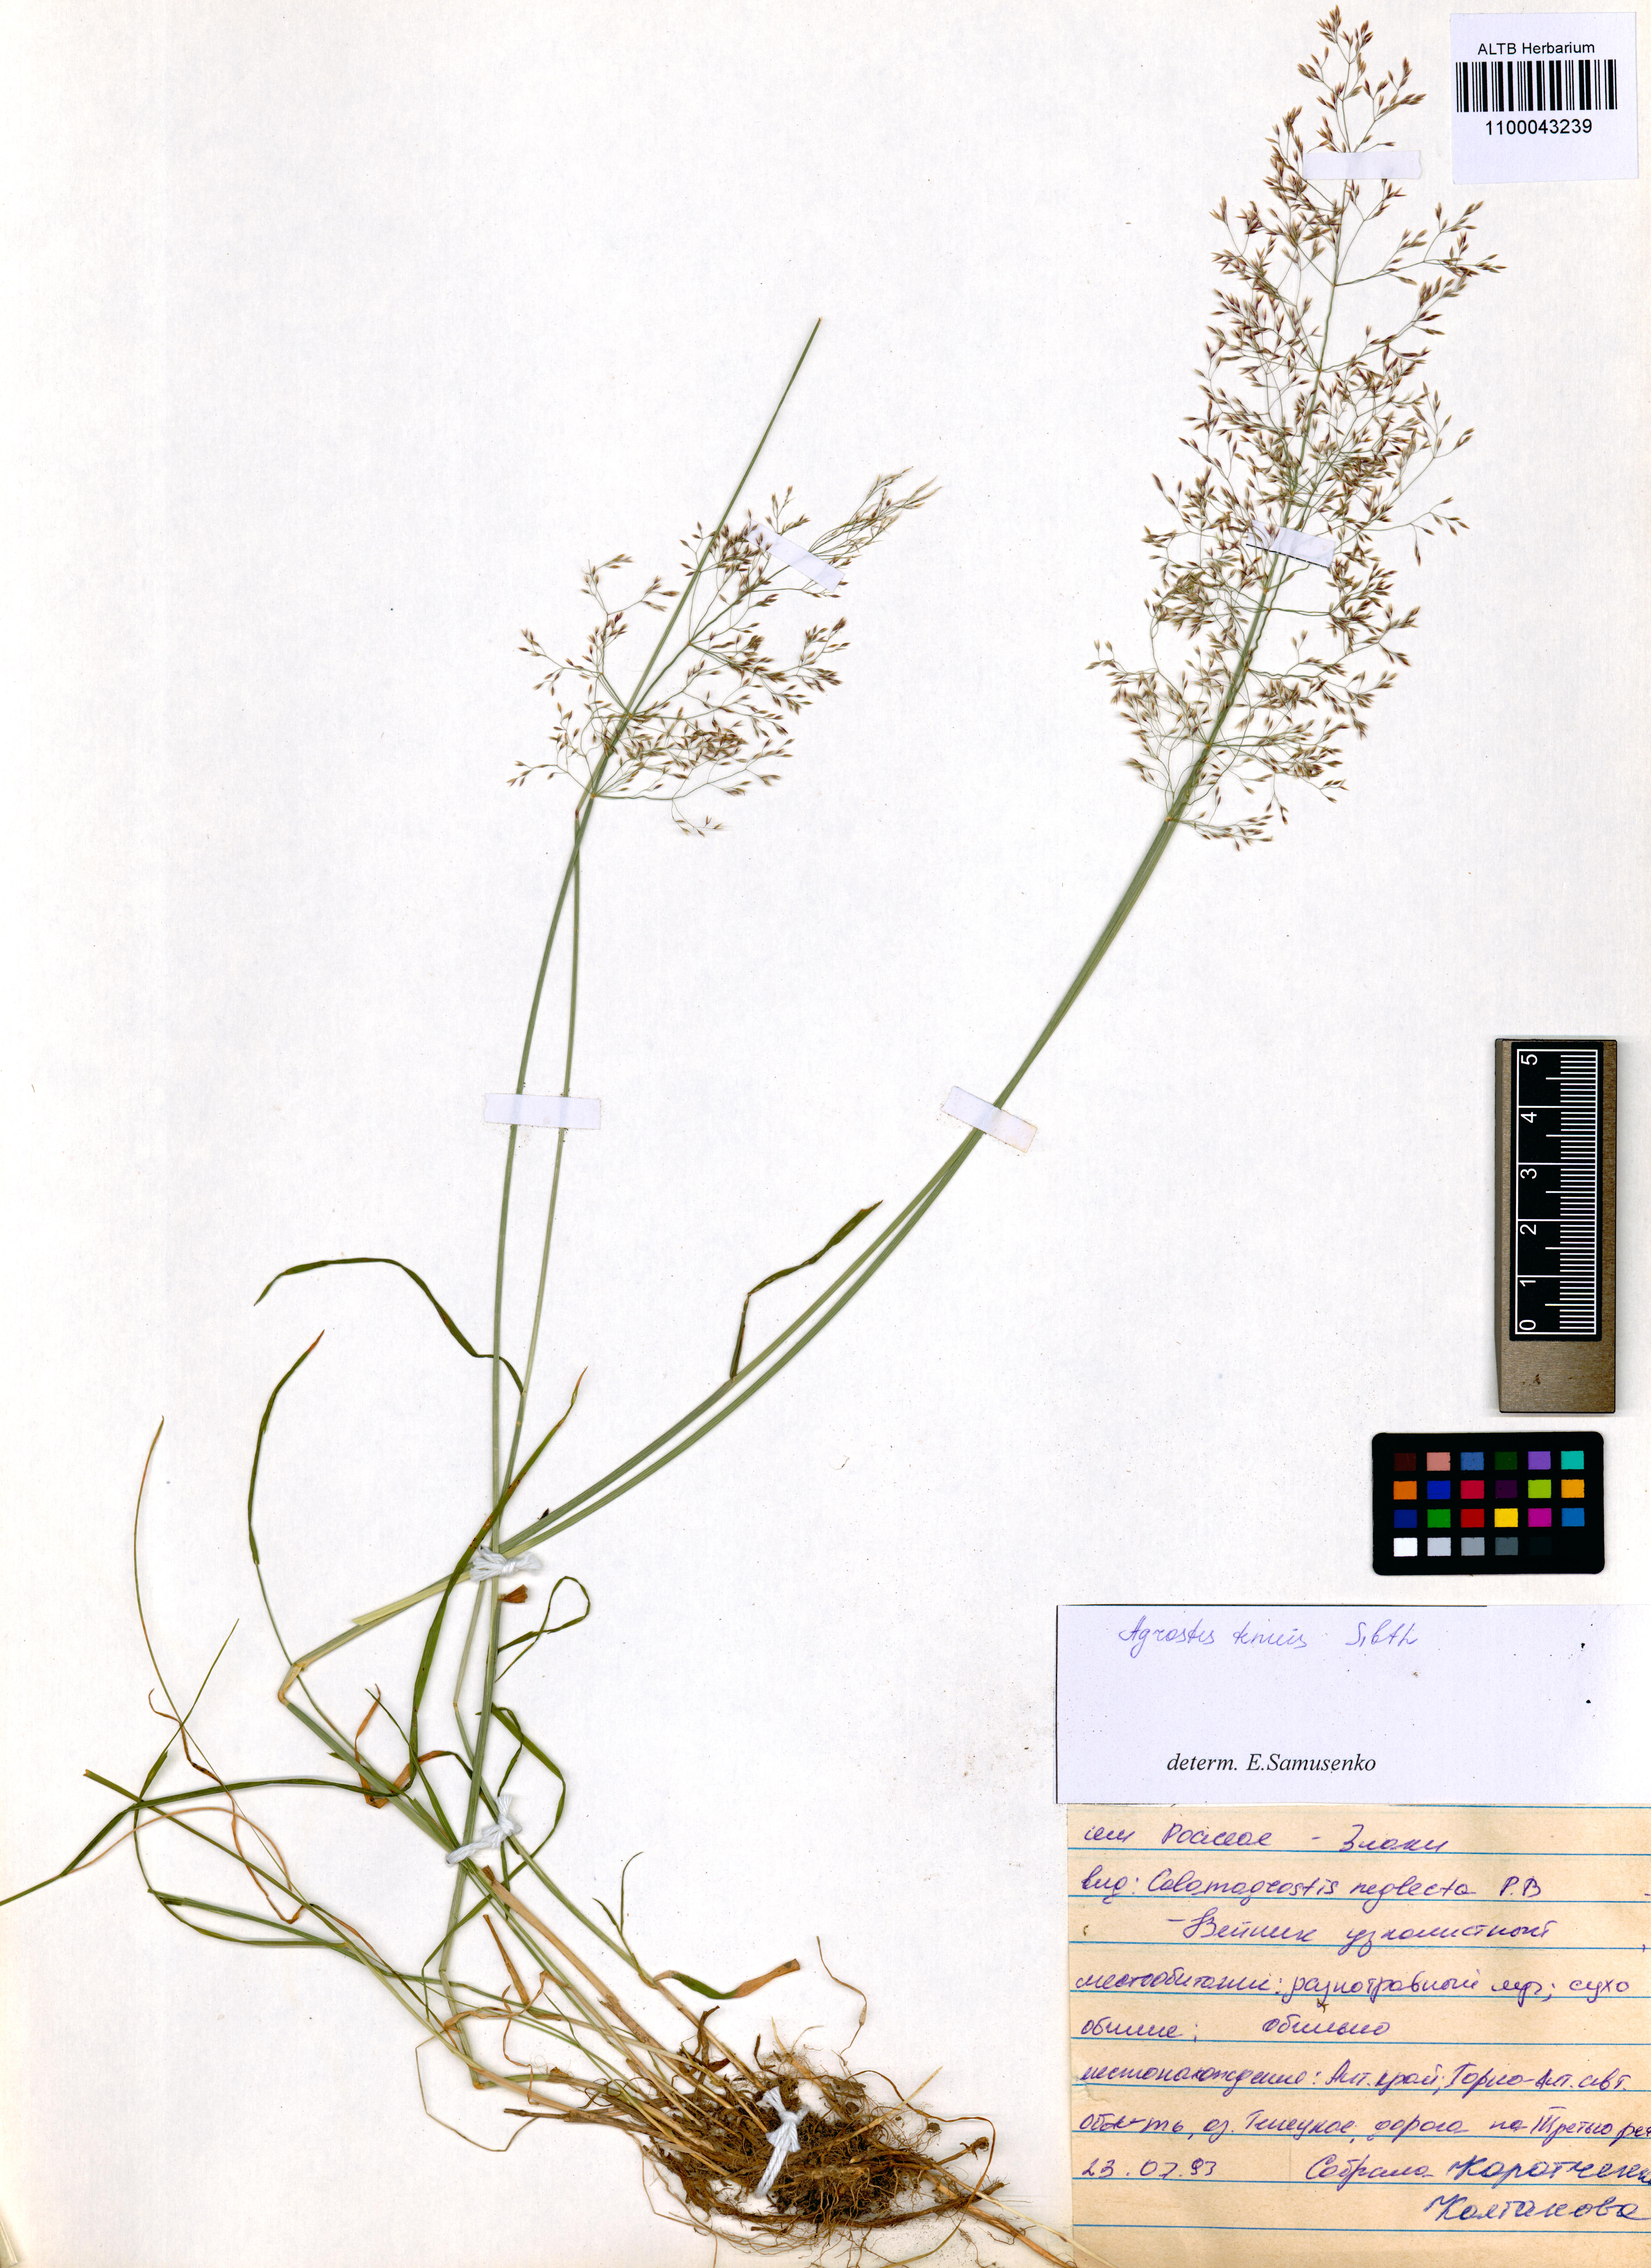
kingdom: Plantae
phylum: Tracheophyta
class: Liliopsida
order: Poales
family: Poaceae
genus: Agrostis
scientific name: Agrostis capillaris
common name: Colonial bentgrass
